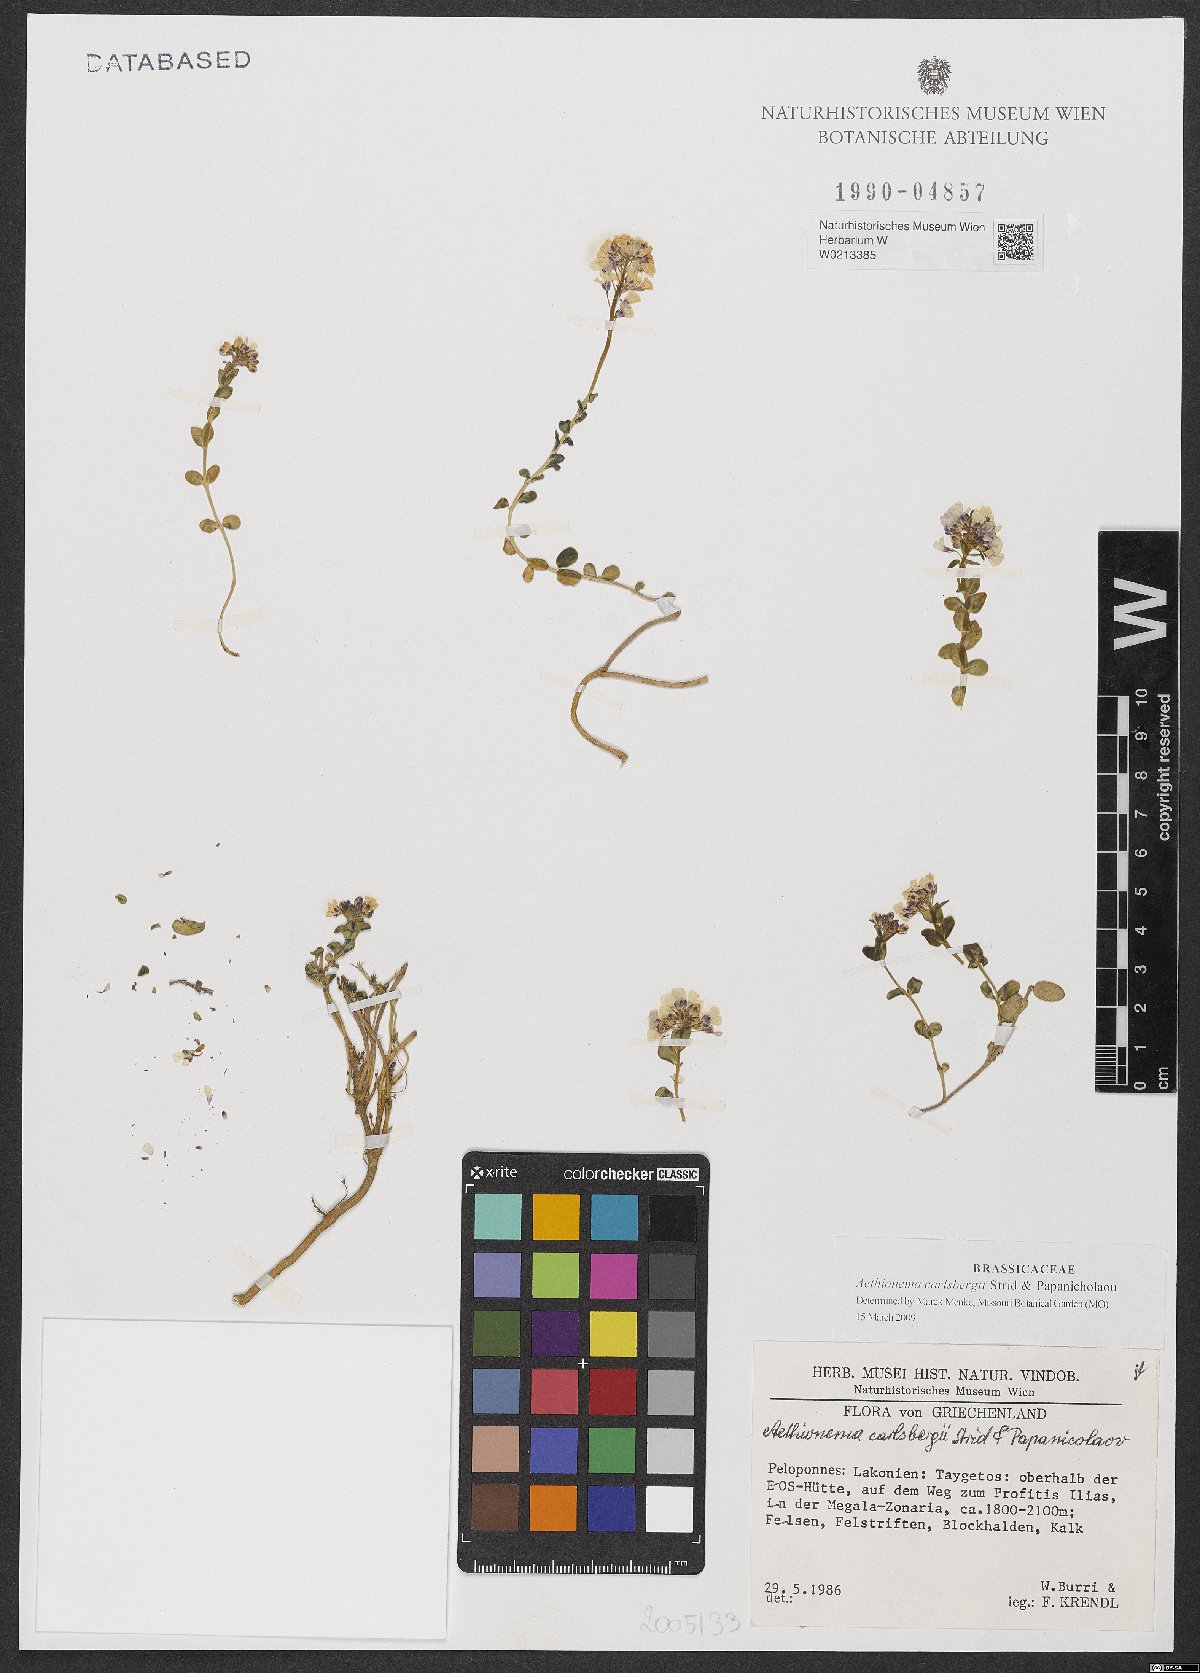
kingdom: Plantae
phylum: Tracheophyta
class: Magnoliopsida
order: Brassicales
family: Brassicaceae
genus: Aethionema
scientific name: Aethionema carlsbergii
